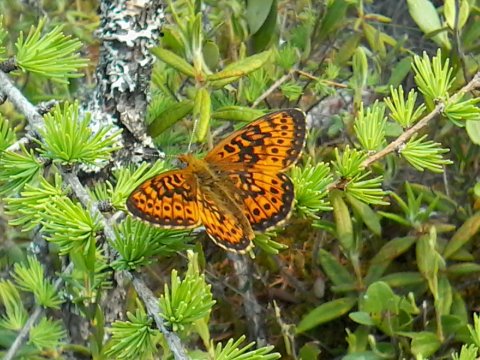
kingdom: Animalia
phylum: Arthropoda
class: Insecta
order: Lepidoptera
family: Nymphalidae
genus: Boloria
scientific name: Boloria eunomia
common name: Bog Fritillary
